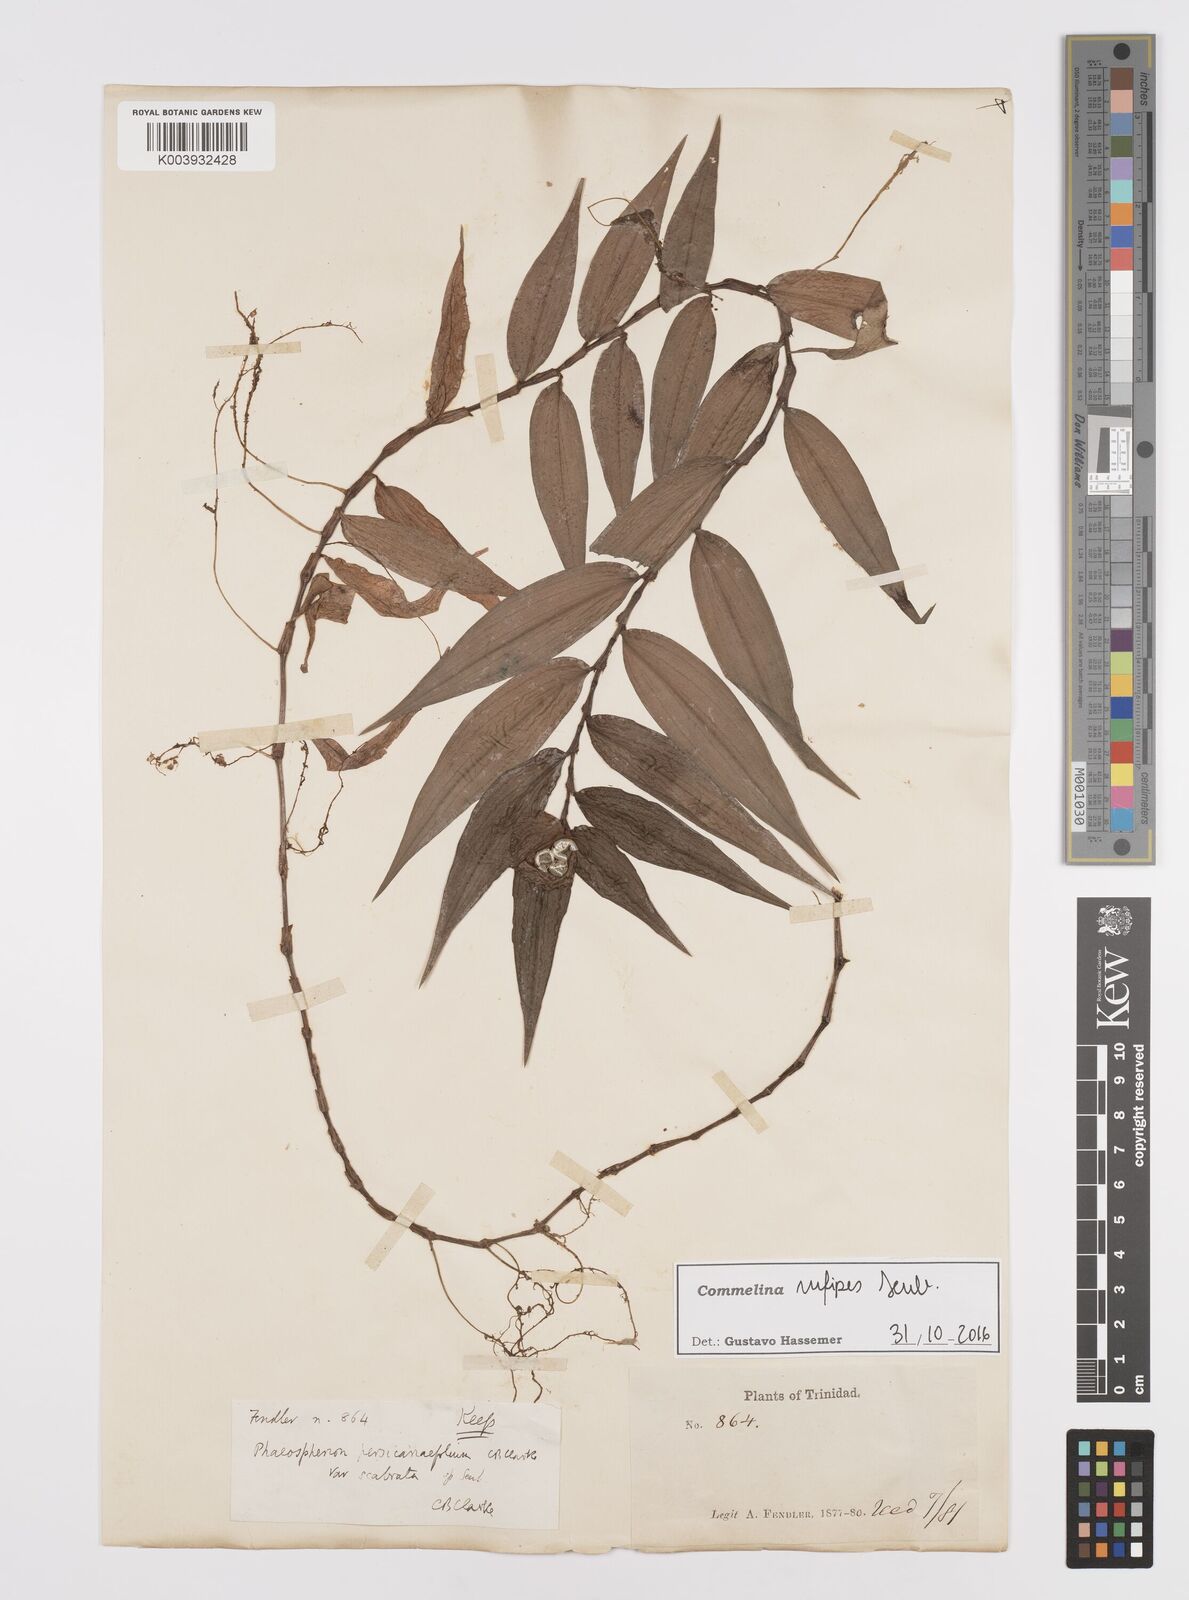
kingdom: Plantae
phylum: Tracheophyta
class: Liliopsida
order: Commelinales
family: Commelinaceae
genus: Commelina
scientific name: Commelina rufipes
